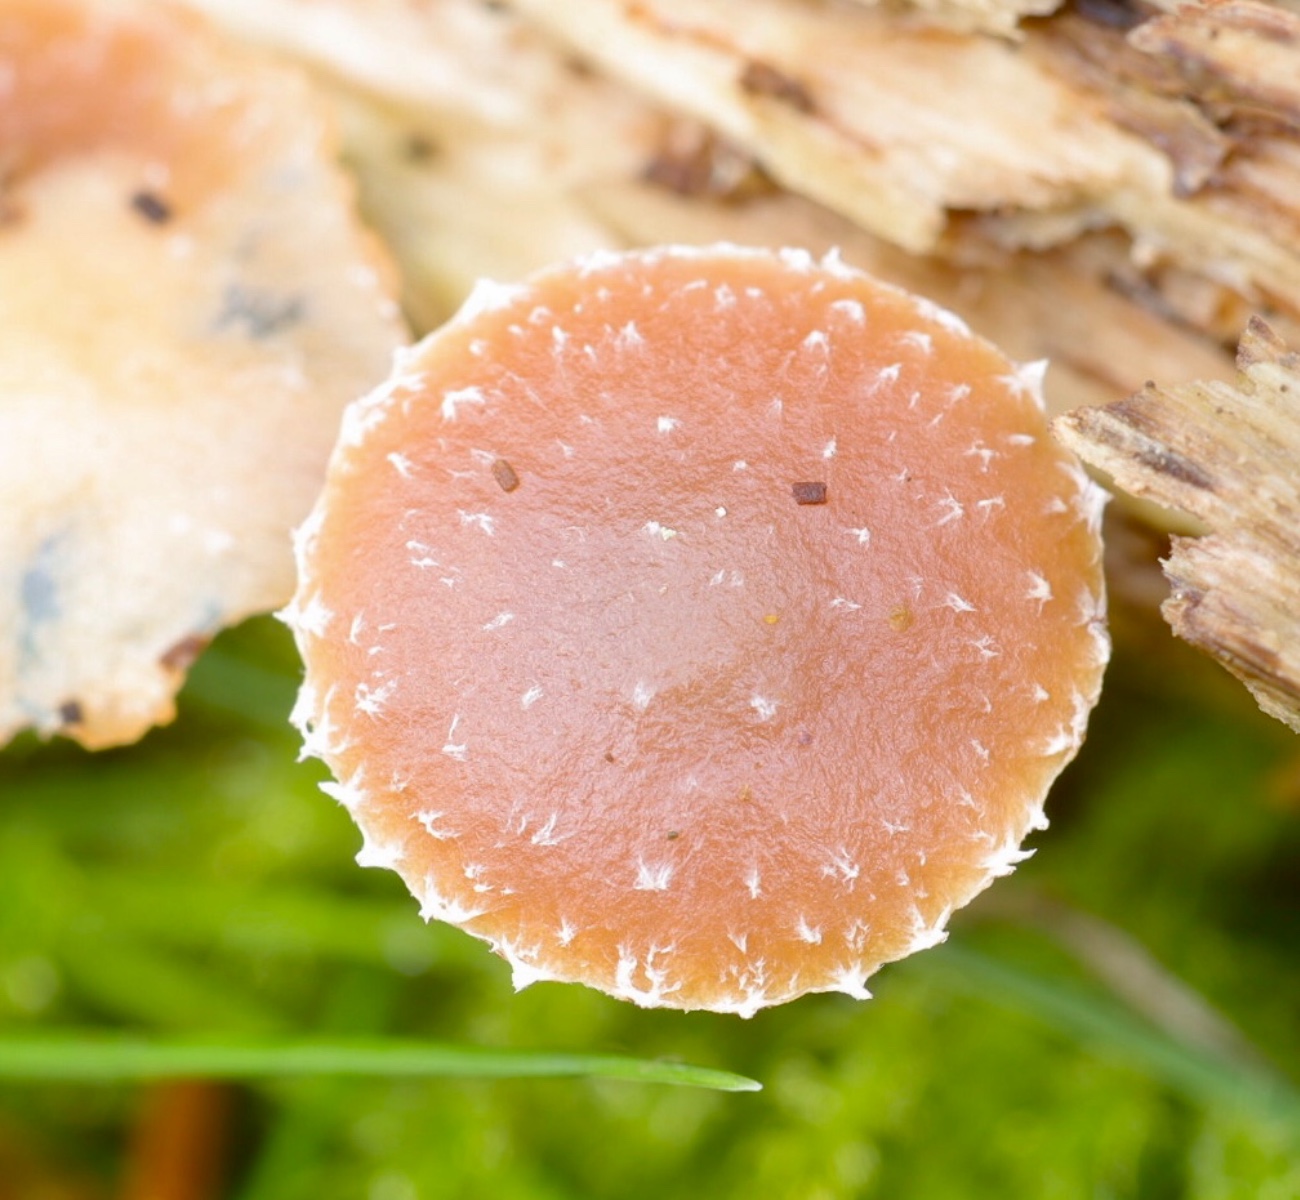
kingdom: Fungi
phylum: Basidiomycota
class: Agaricomycetes
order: Agaricales
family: Strophariaceae
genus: Deconica
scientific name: Deconica
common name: stråhat
